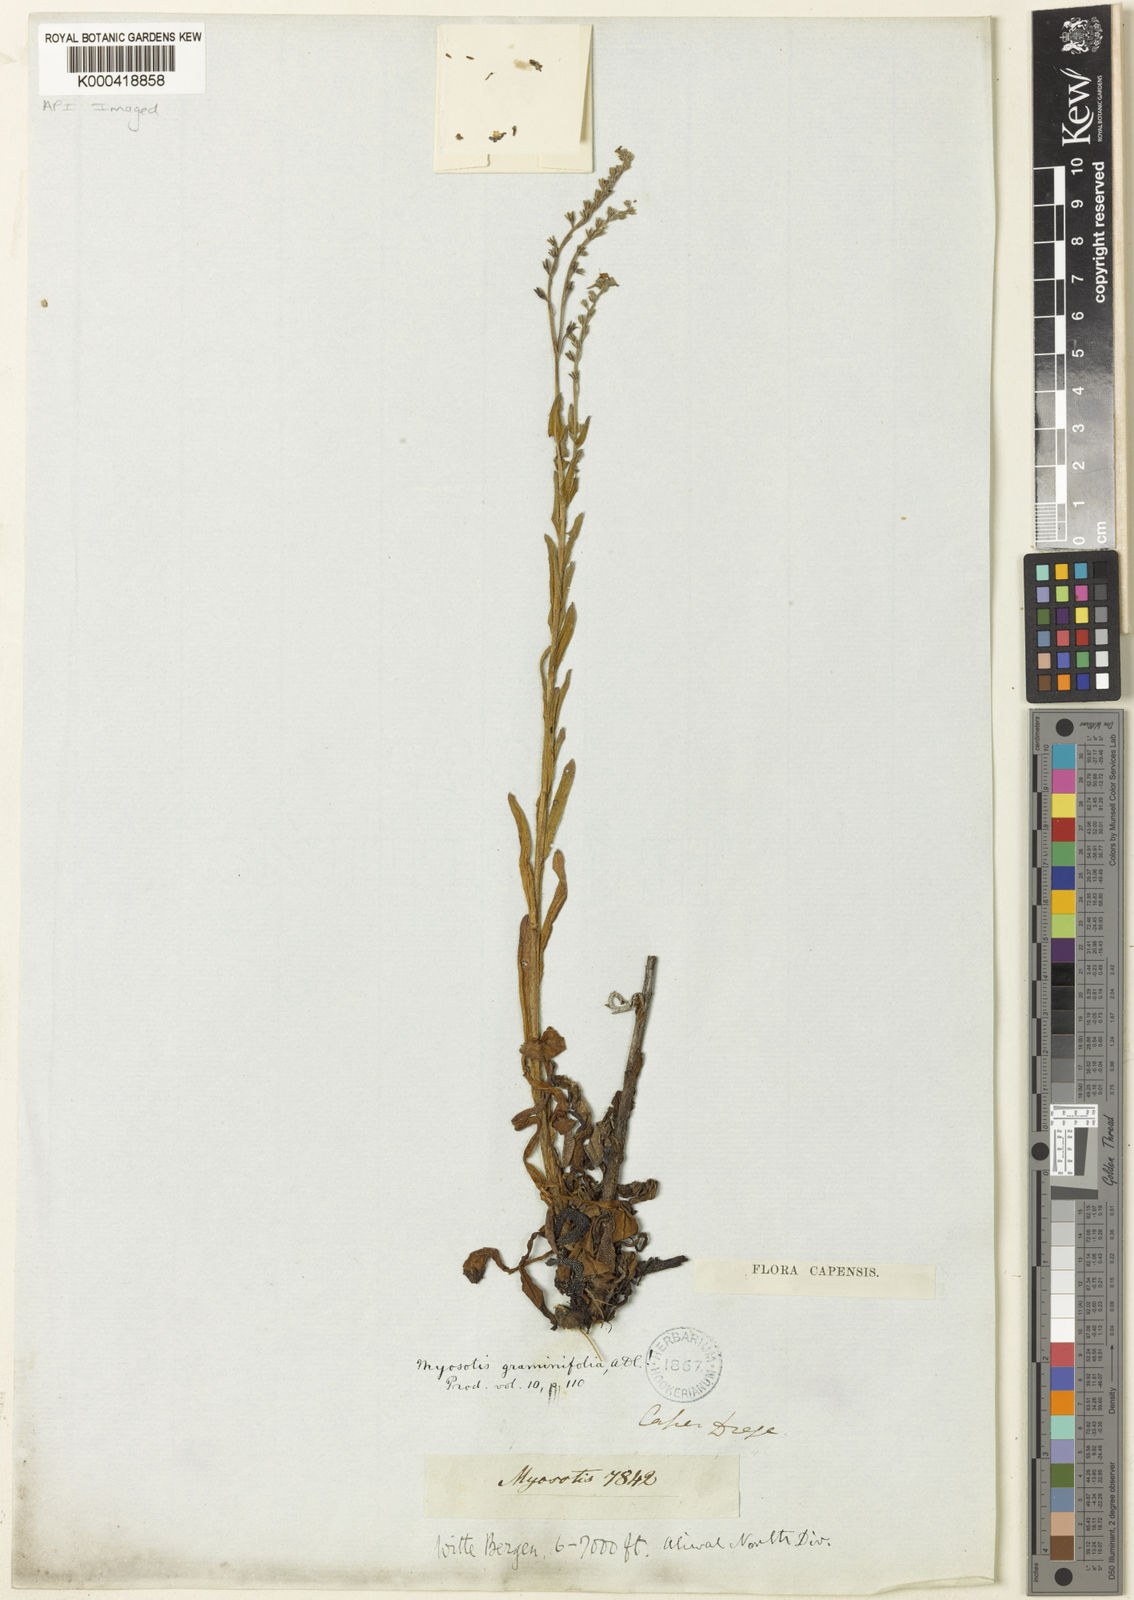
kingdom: Plantae
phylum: Tracheophyta
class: Magnoliopsida
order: Boraginales
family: Boraginaceae
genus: Myosotis
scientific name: Myosotis graminifolia
